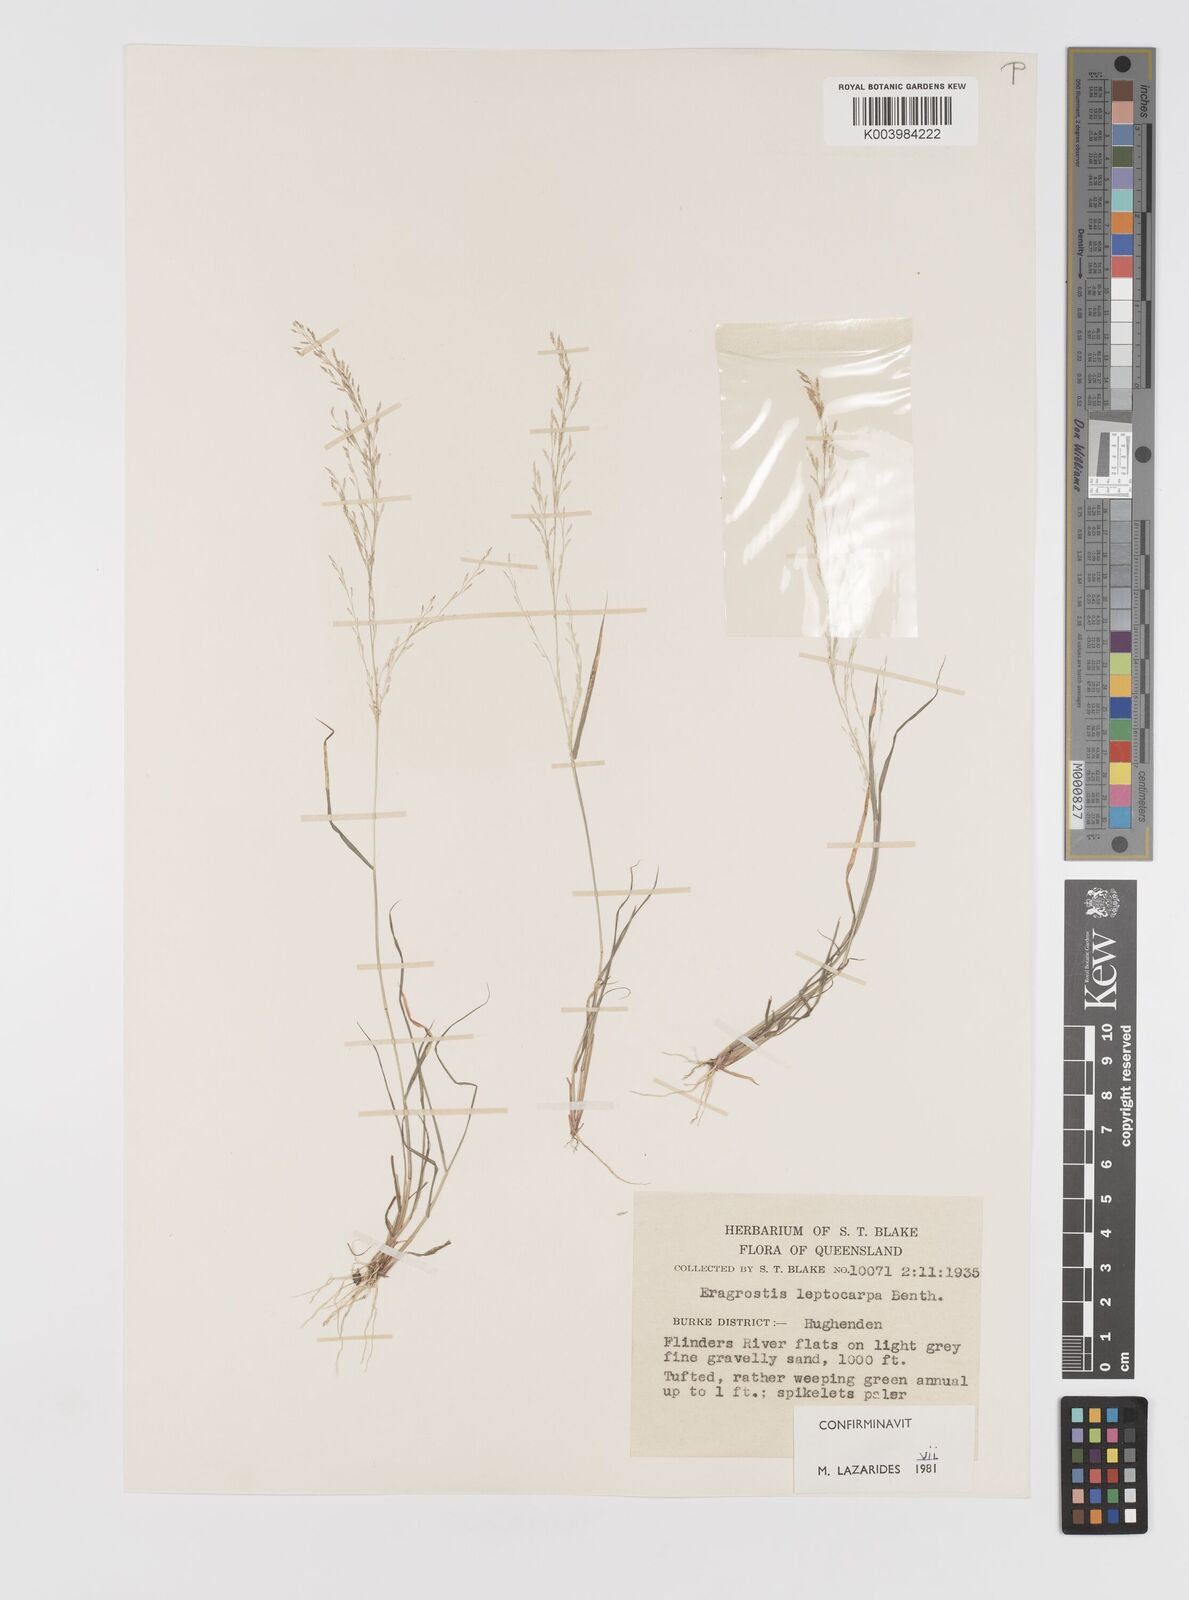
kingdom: Plantae
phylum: Tracheophyta
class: Liliopsida
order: Poales
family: Poaceae
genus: Eragrostis
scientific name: Eragrostis leptocarpa
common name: Drooping love grass
